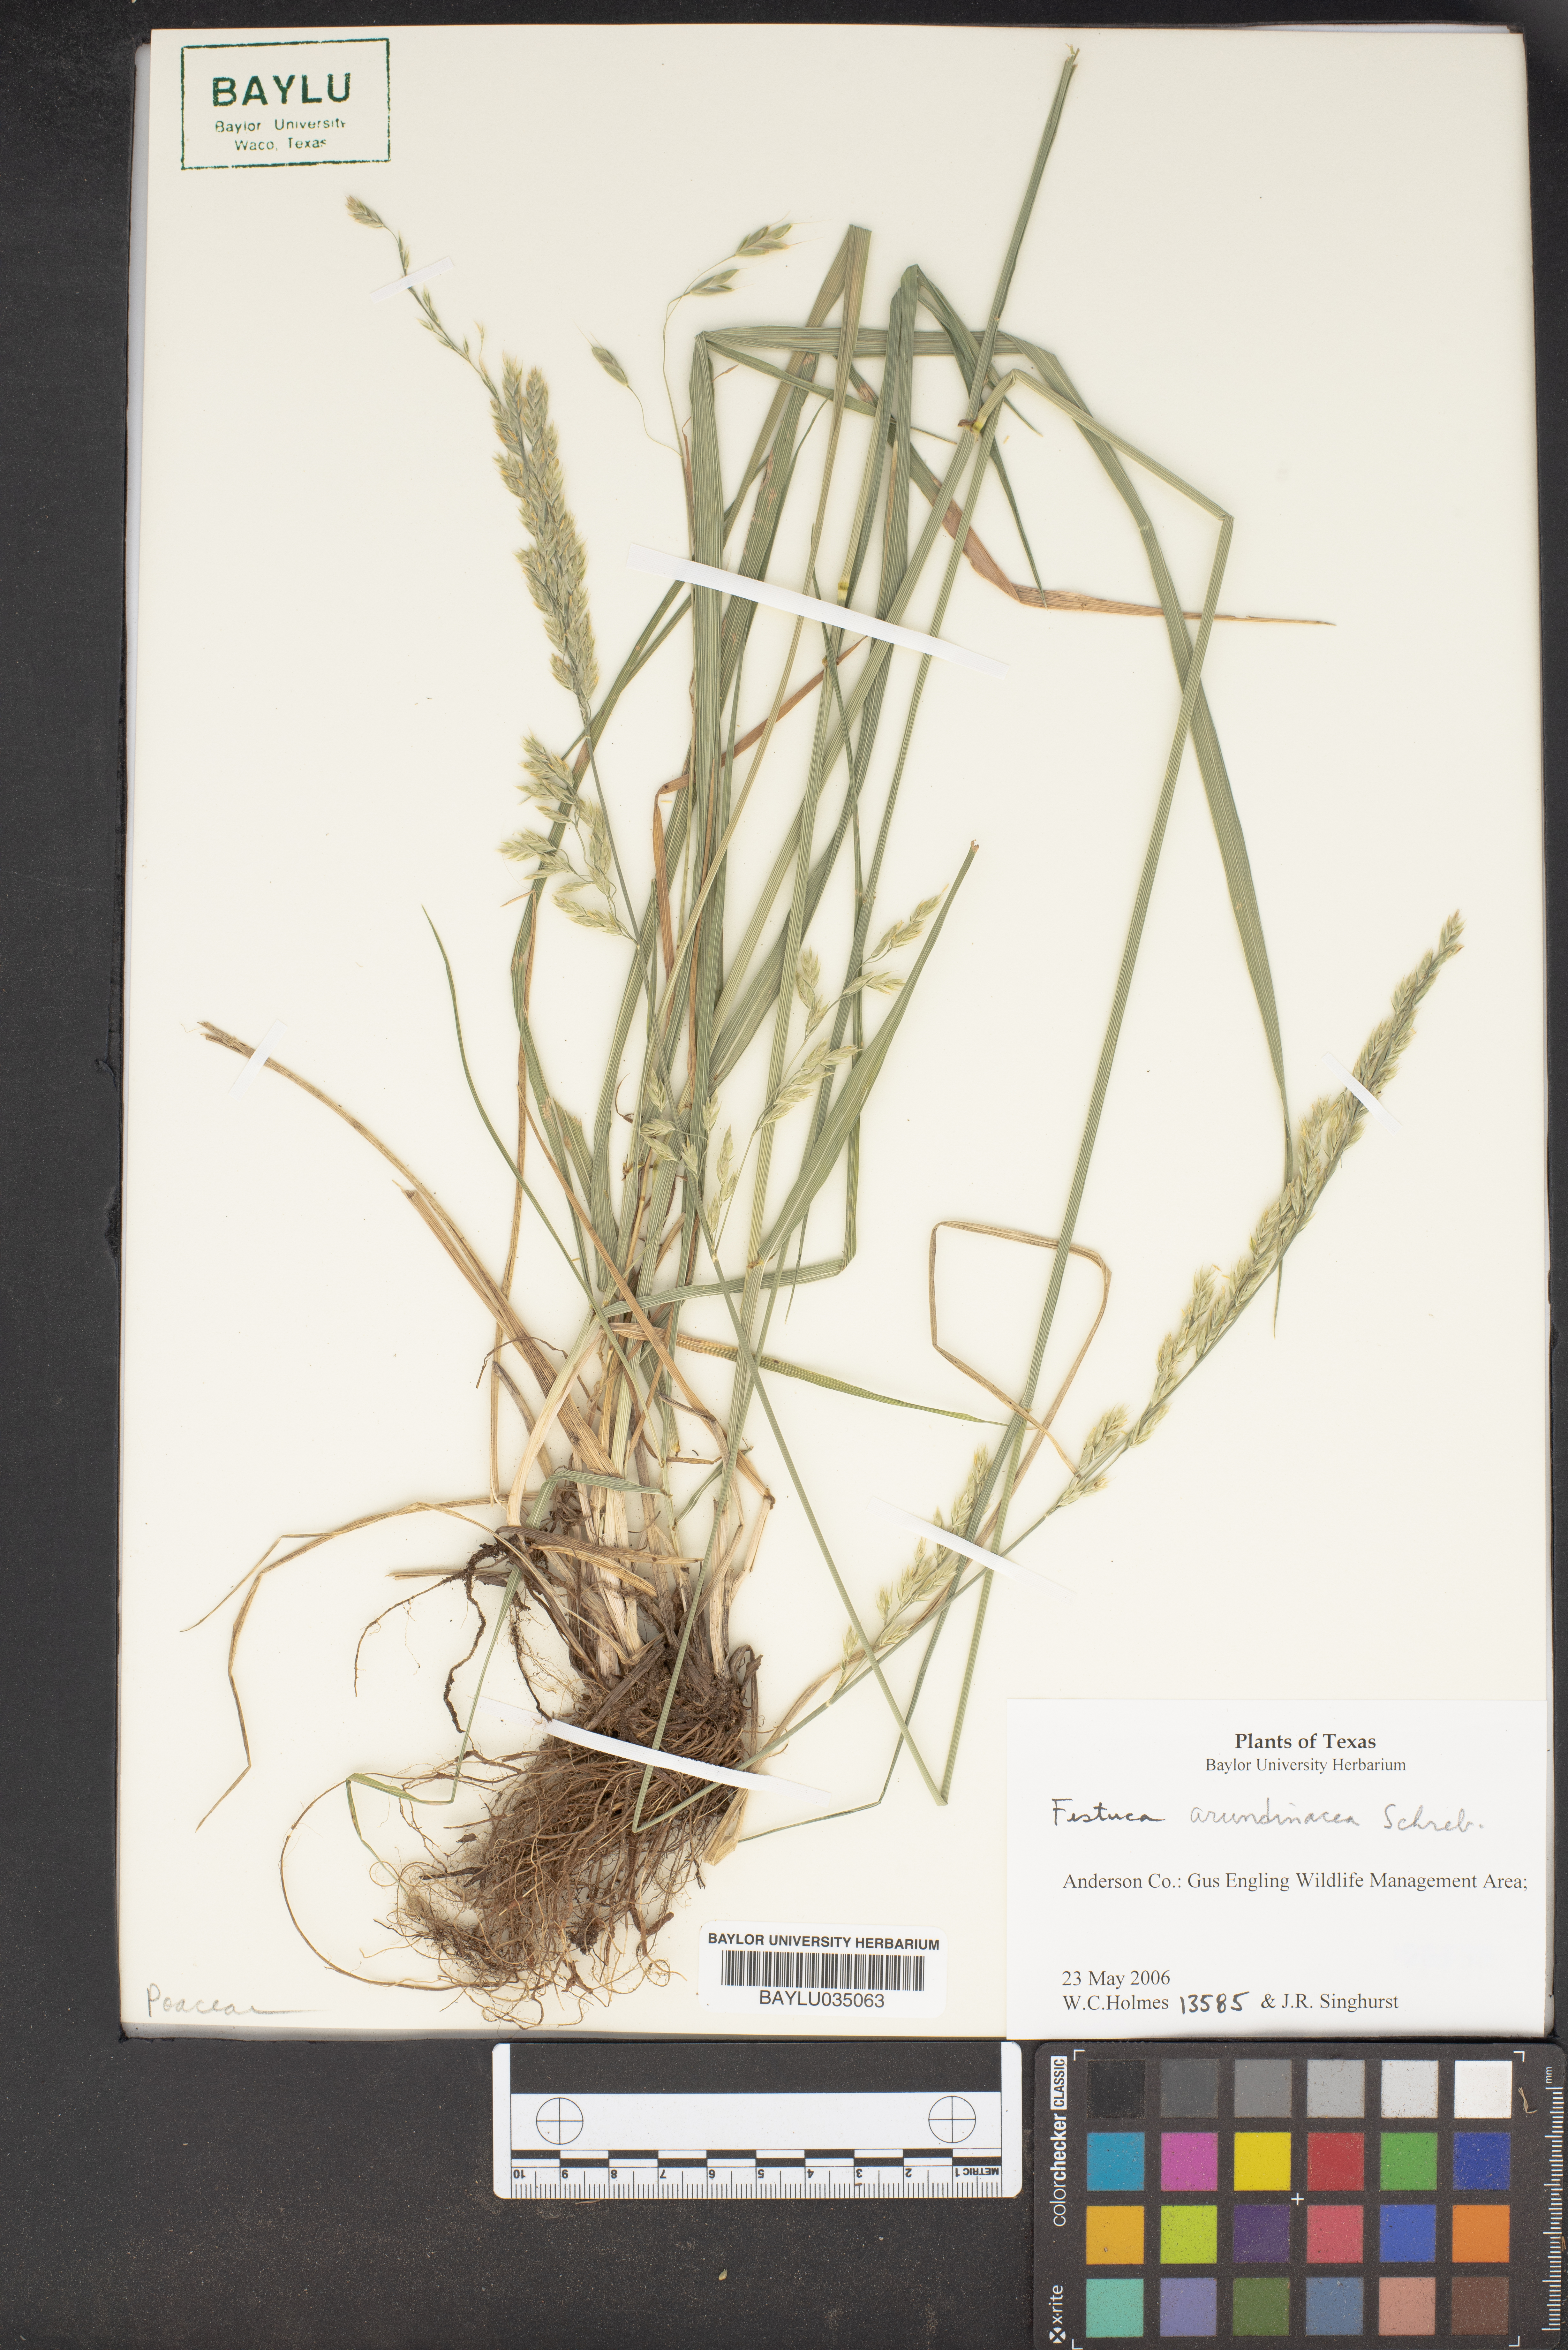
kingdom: Plantae
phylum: Tracheophyta
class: Liliopsida
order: Poales
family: Poaceae
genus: Lolium
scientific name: Lolium arundinaceum
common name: Reed fescue
